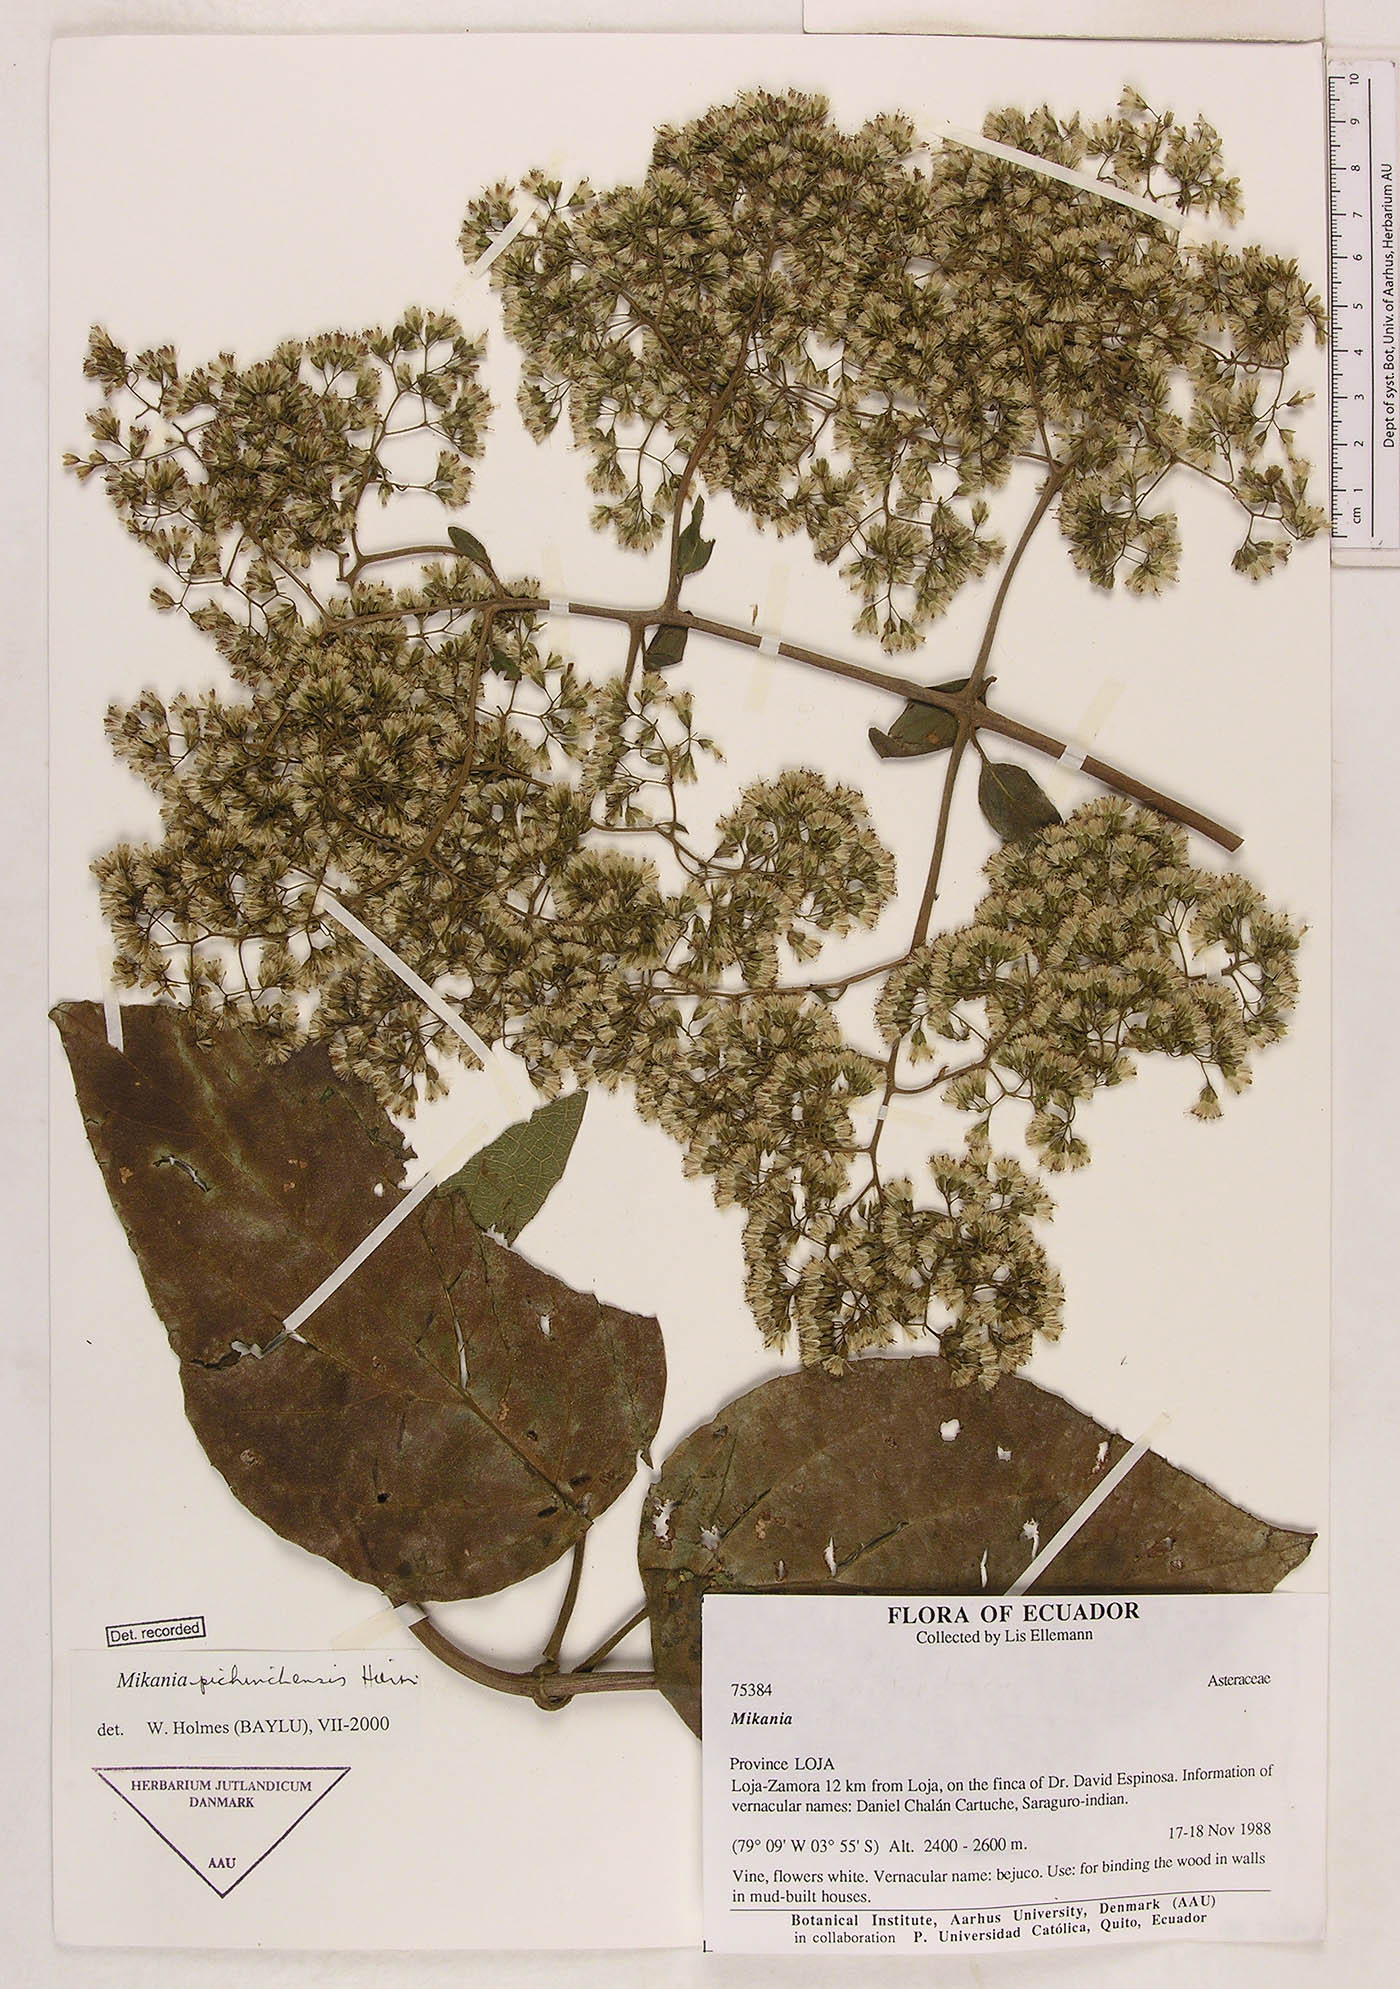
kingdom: Plantae
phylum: Tracheophyta
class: Magnoliopsida
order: Asterales
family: Asteraceae
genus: Mikania
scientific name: Mikania pichinchensis
